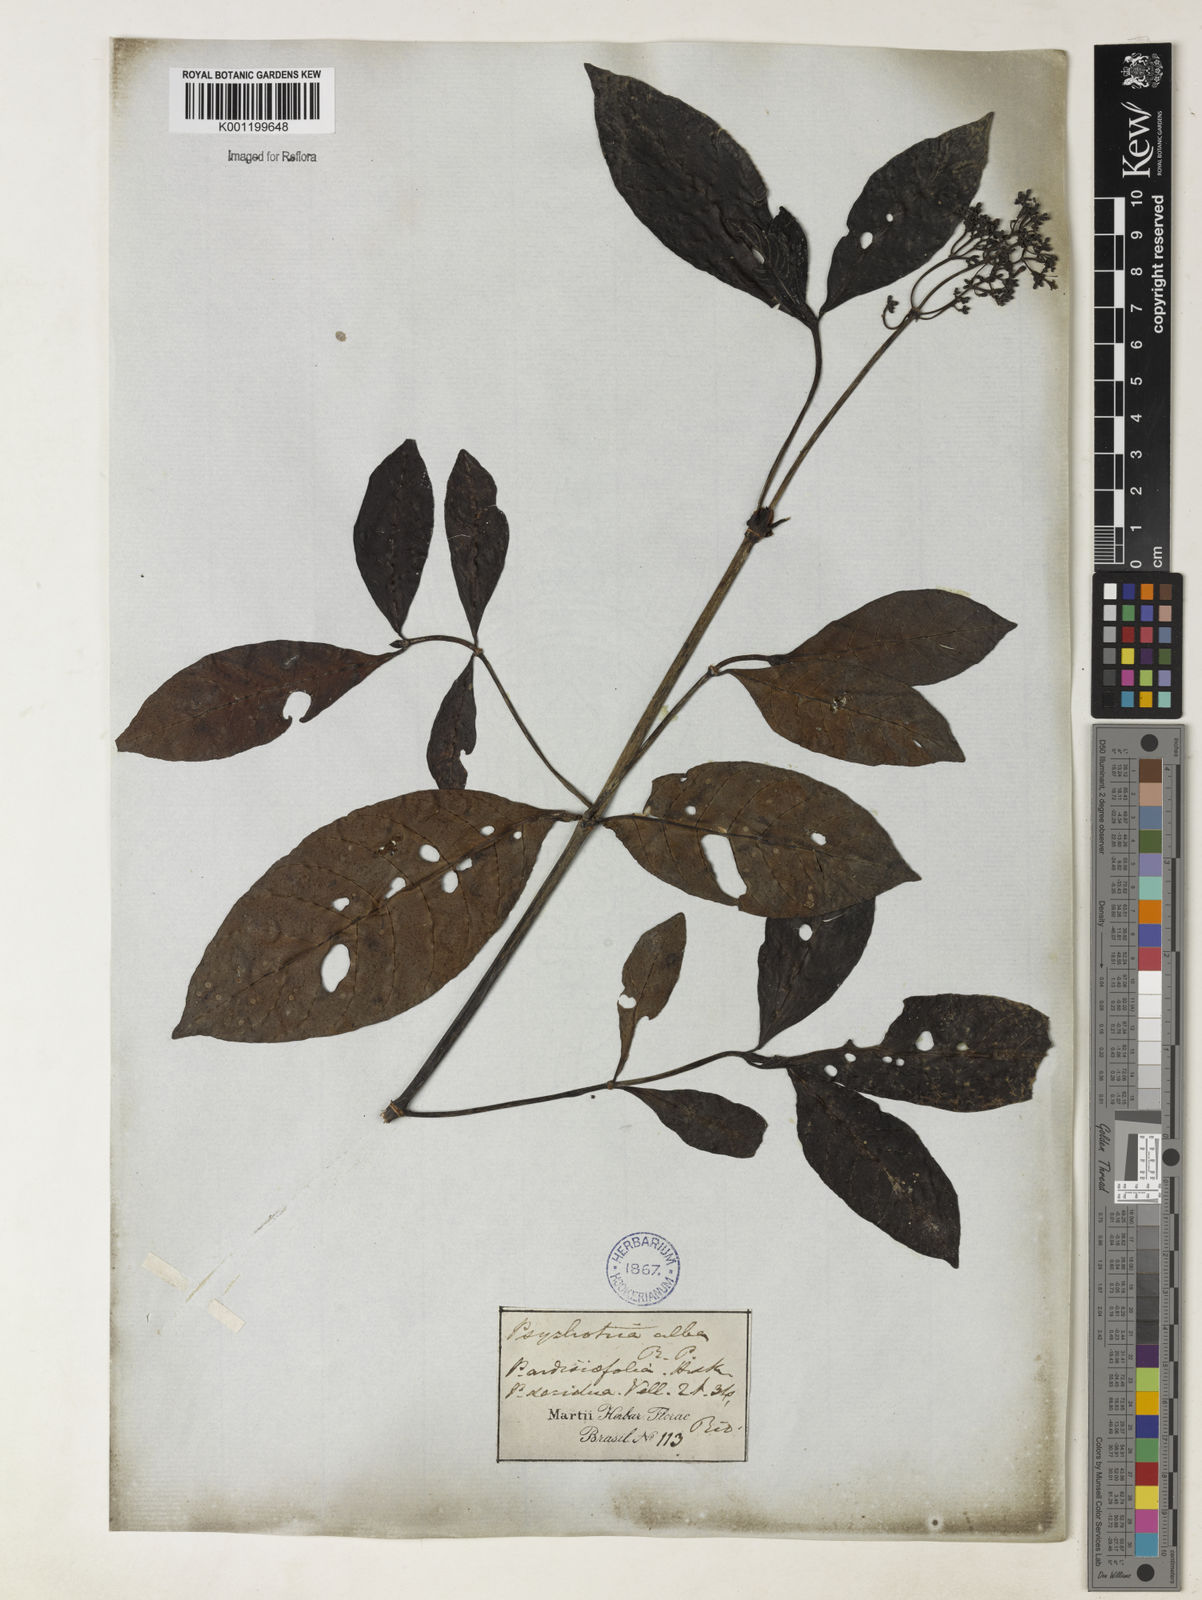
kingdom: Plantae
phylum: Tracheophyta
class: Magnoliopsida
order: Gentianales
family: Rubiaceae
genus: Psychotria
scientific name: Psychotria carthagenensis
